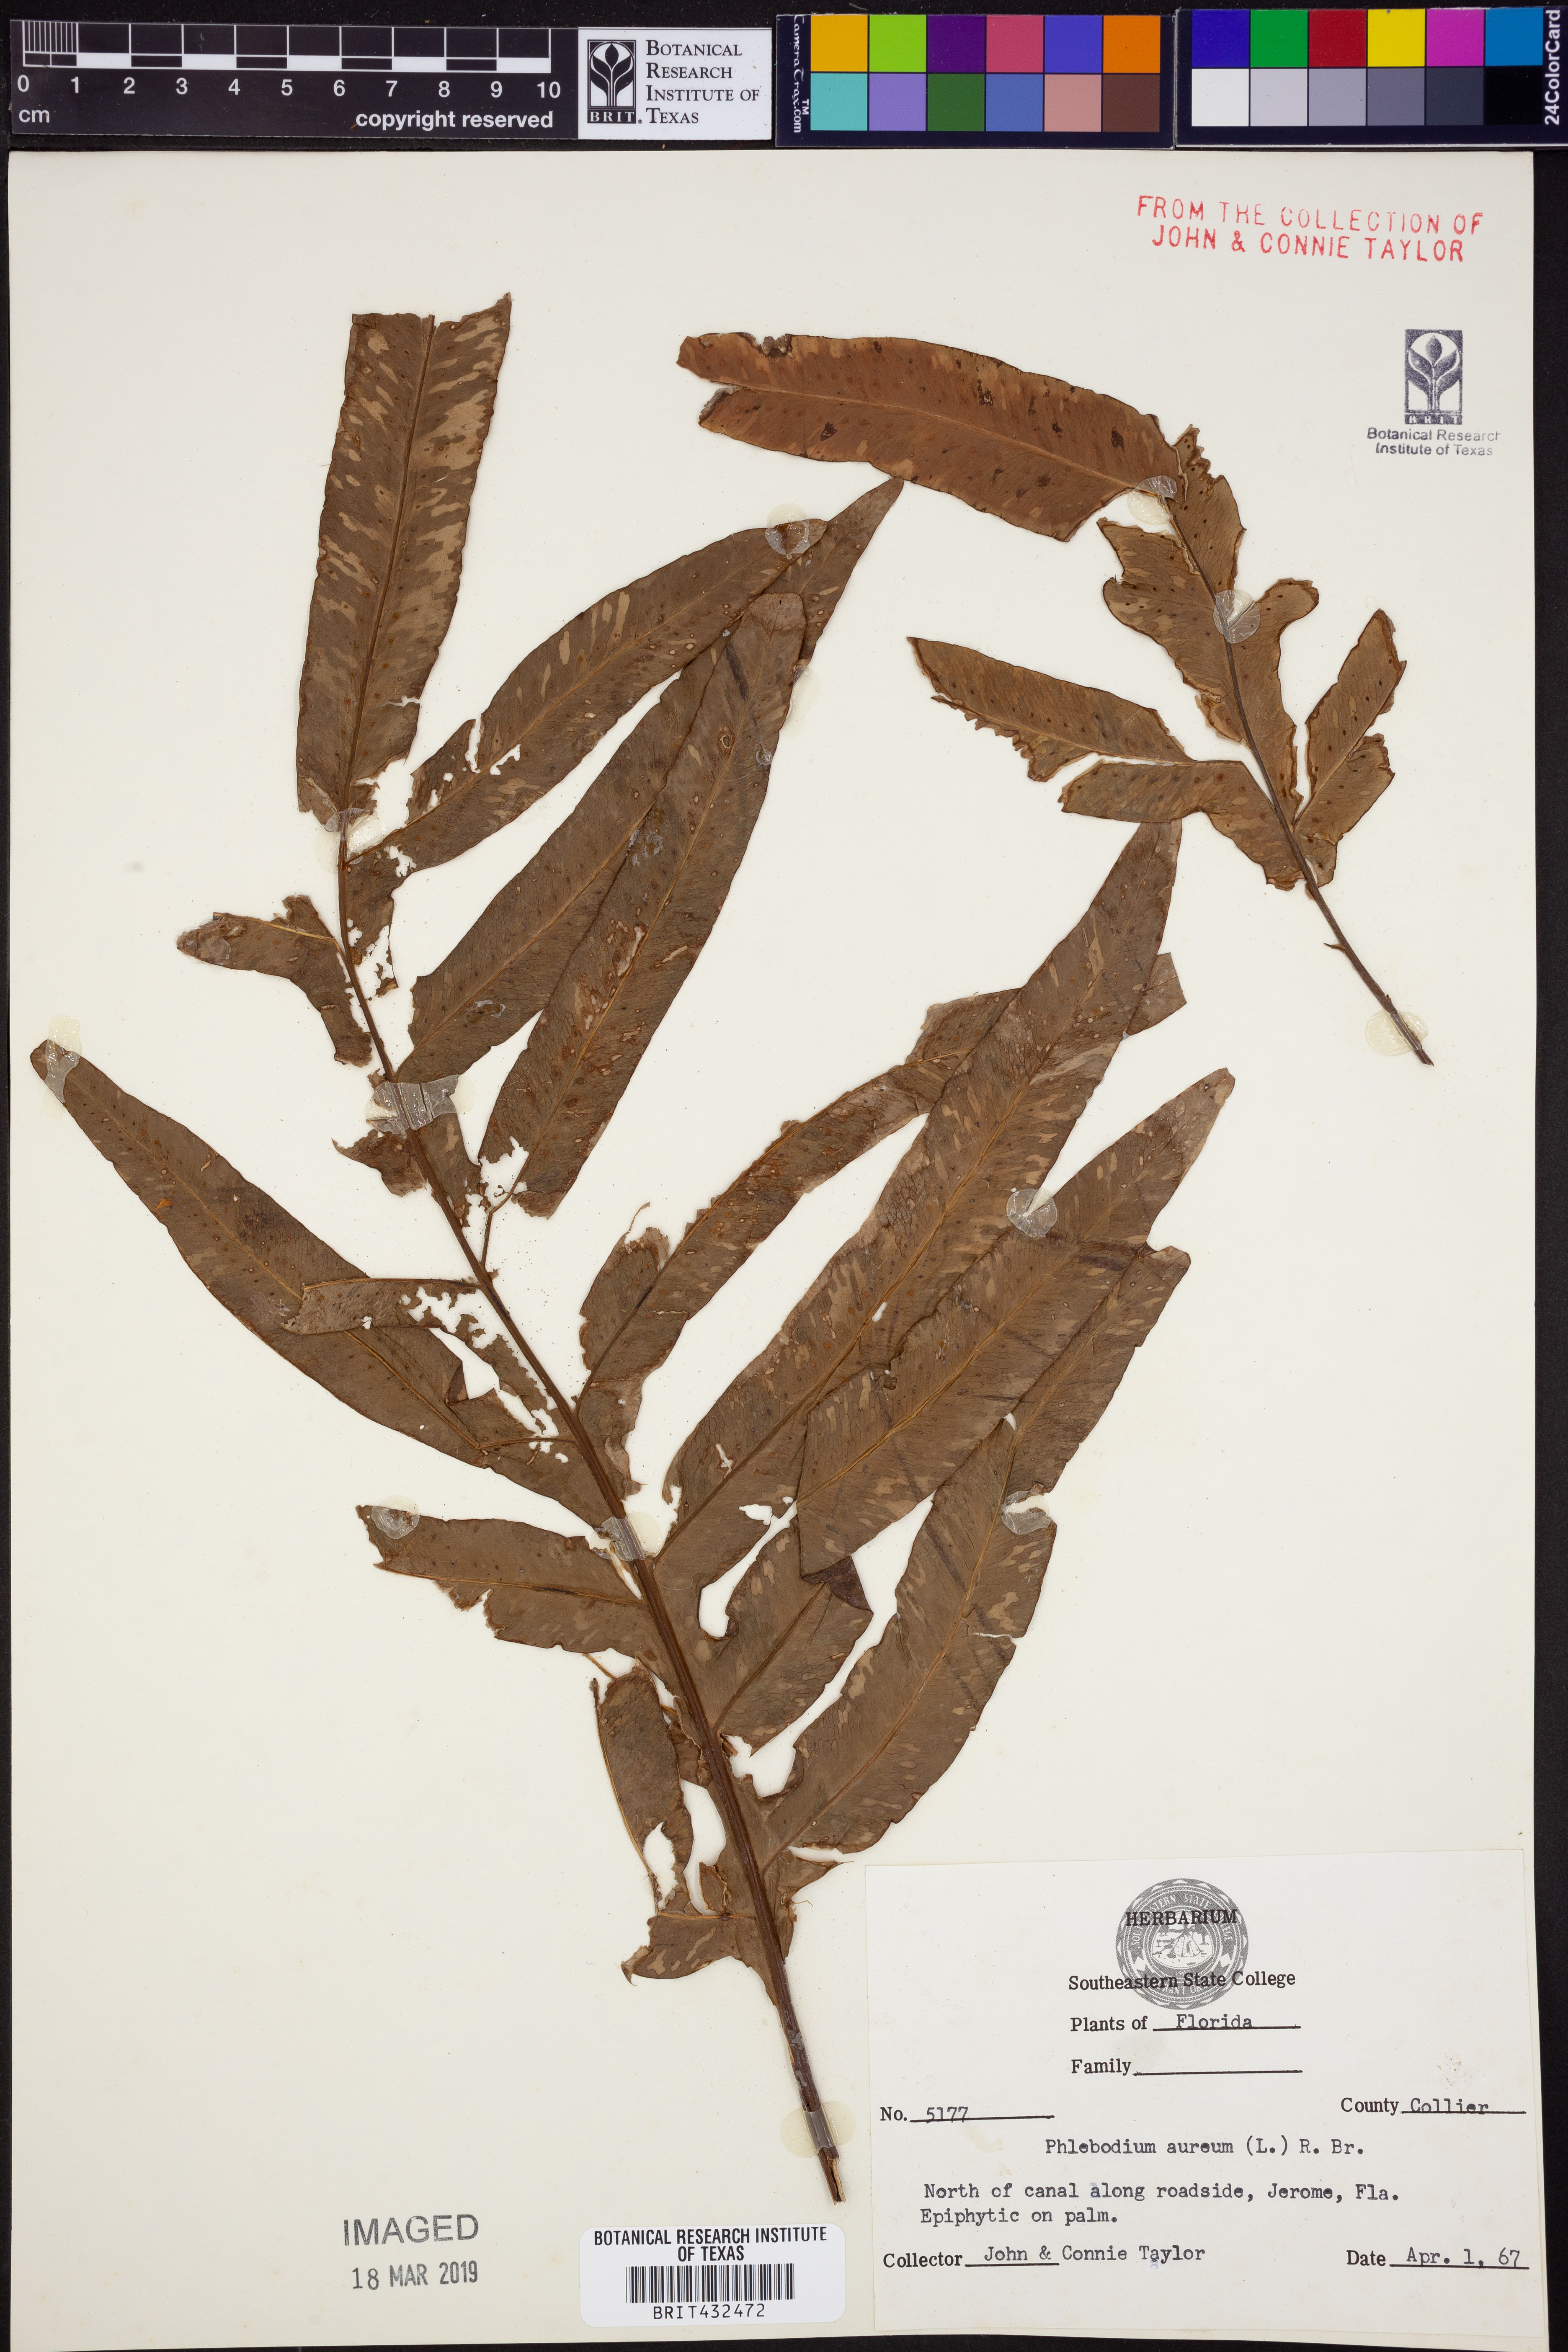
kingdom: Plantae
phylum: Tracheophyta
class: Polypodiopsida
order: Polypodiales
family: Polypodiaceae
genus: Phlebodium
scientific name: Phlebodium aureum
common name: Gold-foot fern
